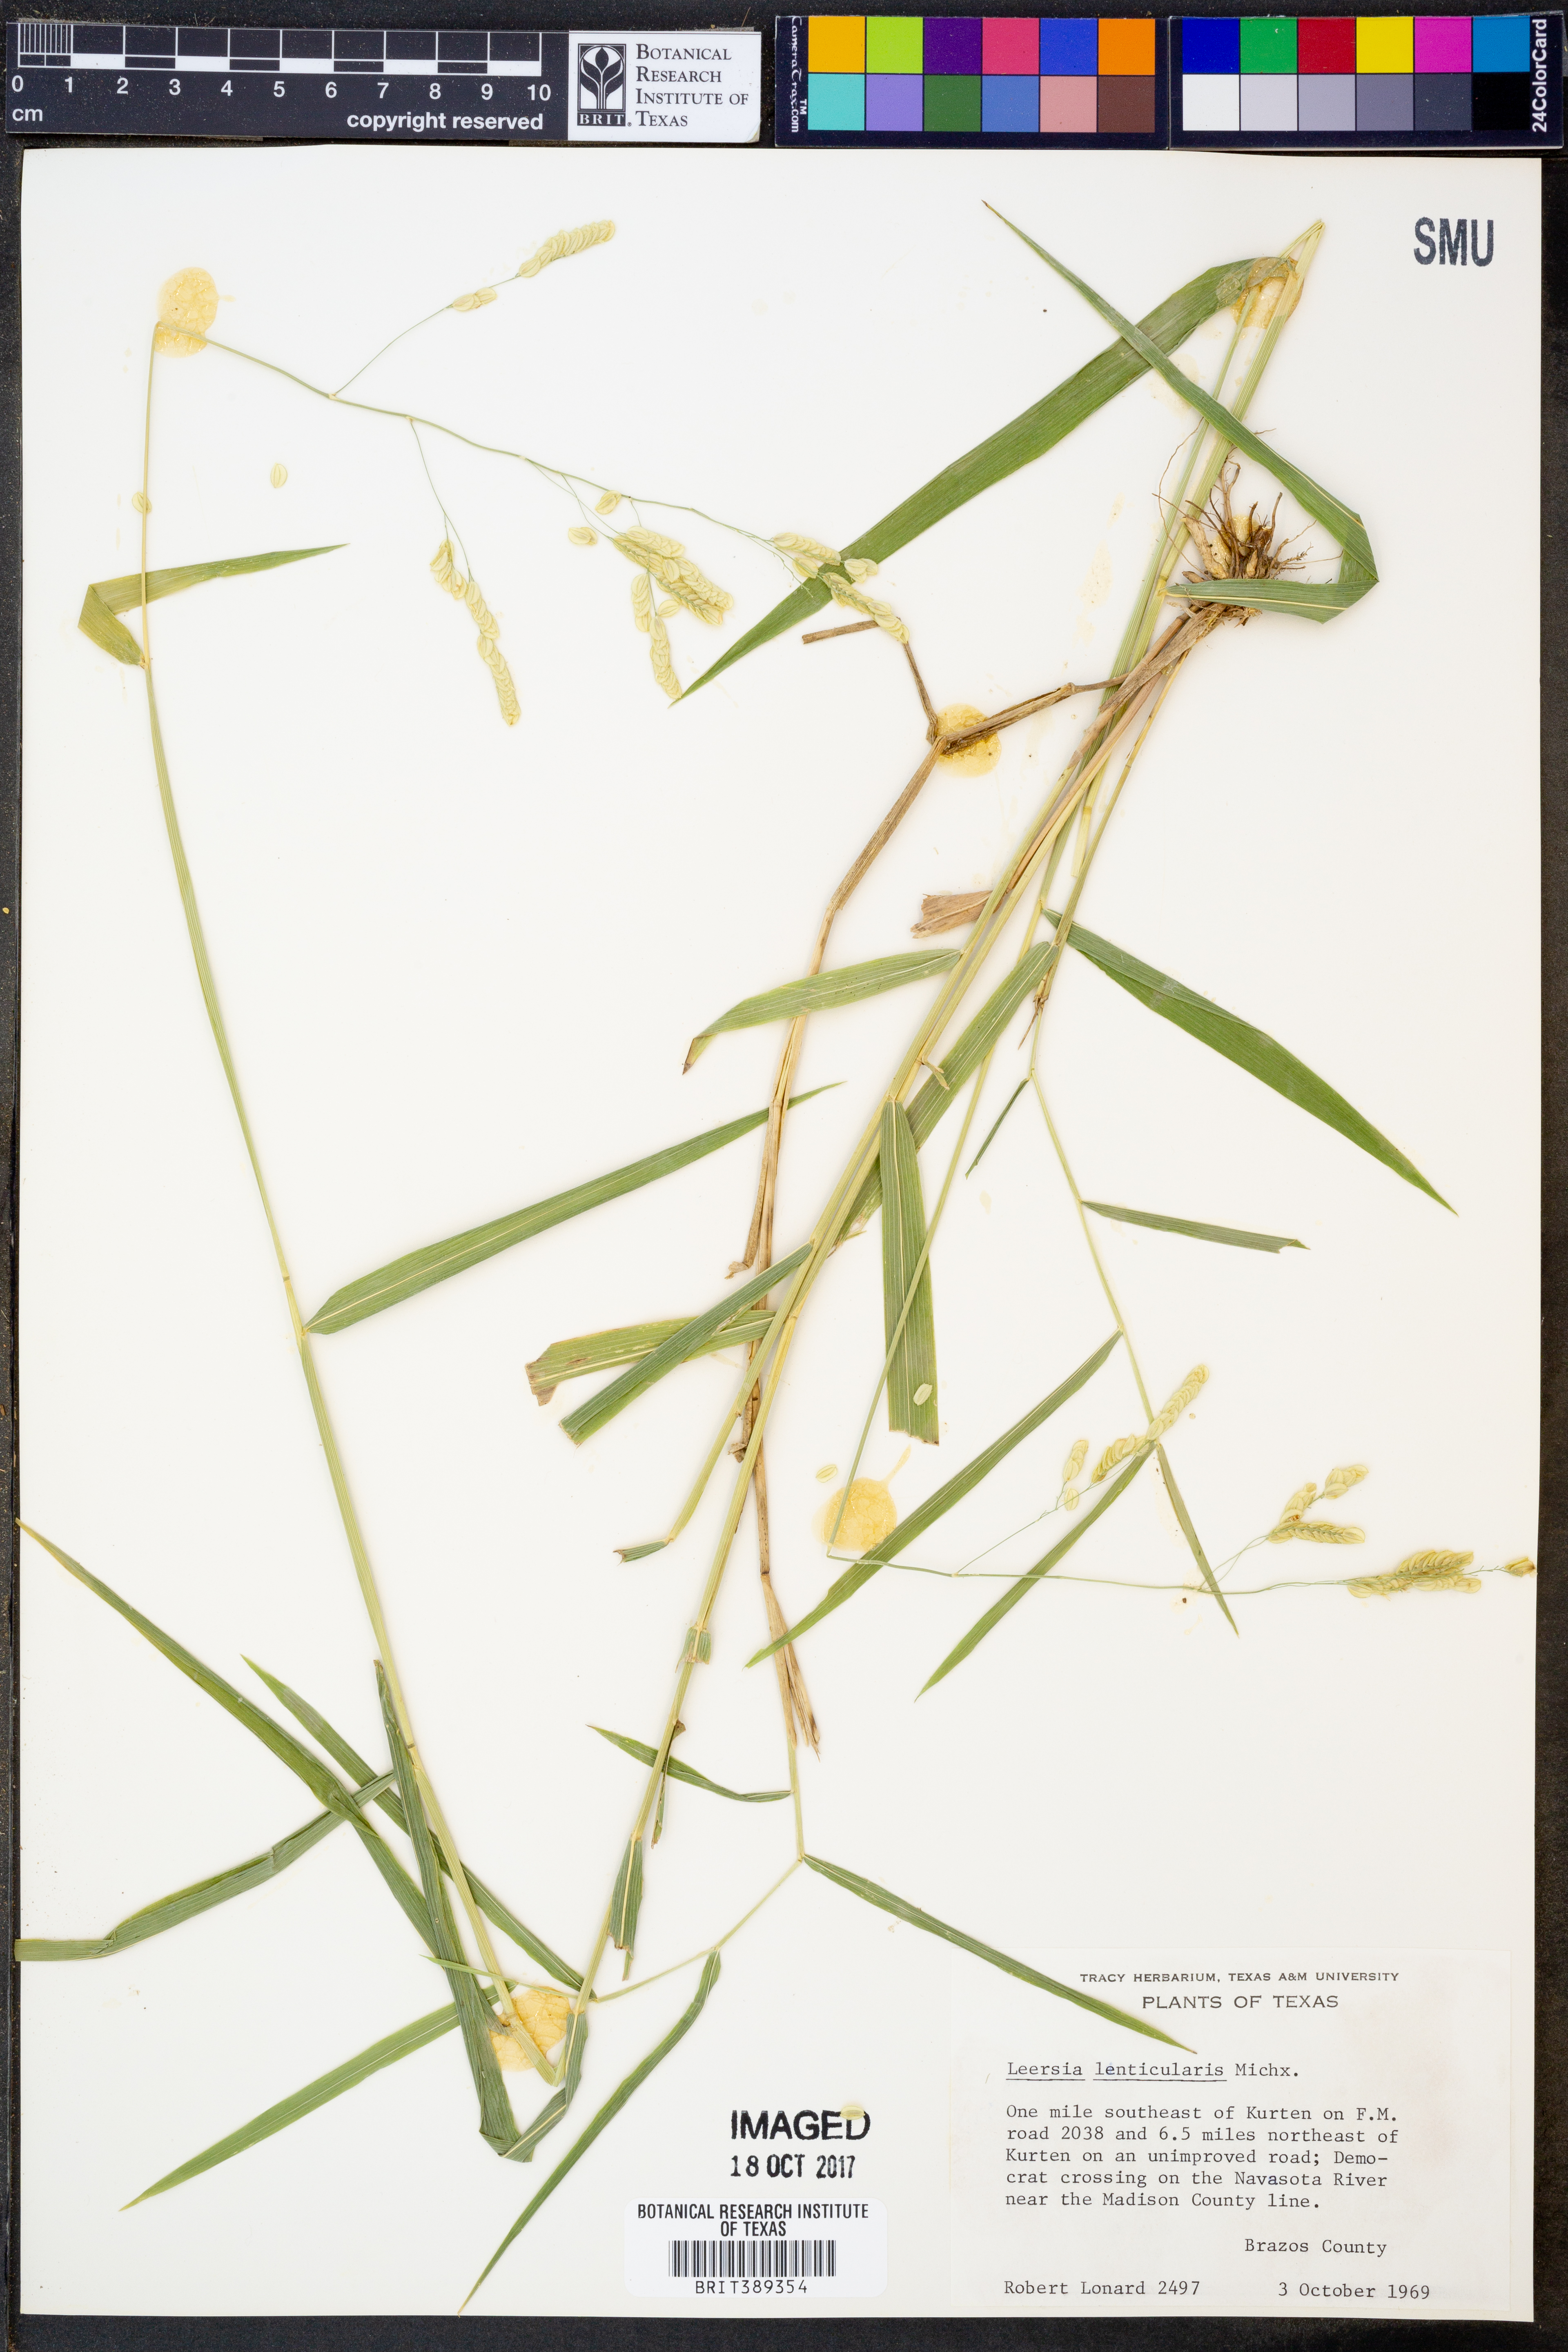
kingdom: Plantae
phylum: Tracheophyta
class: Liliopsida
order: Poales
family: Poaceae
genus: Leersia
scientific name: Leersia lenticularis
